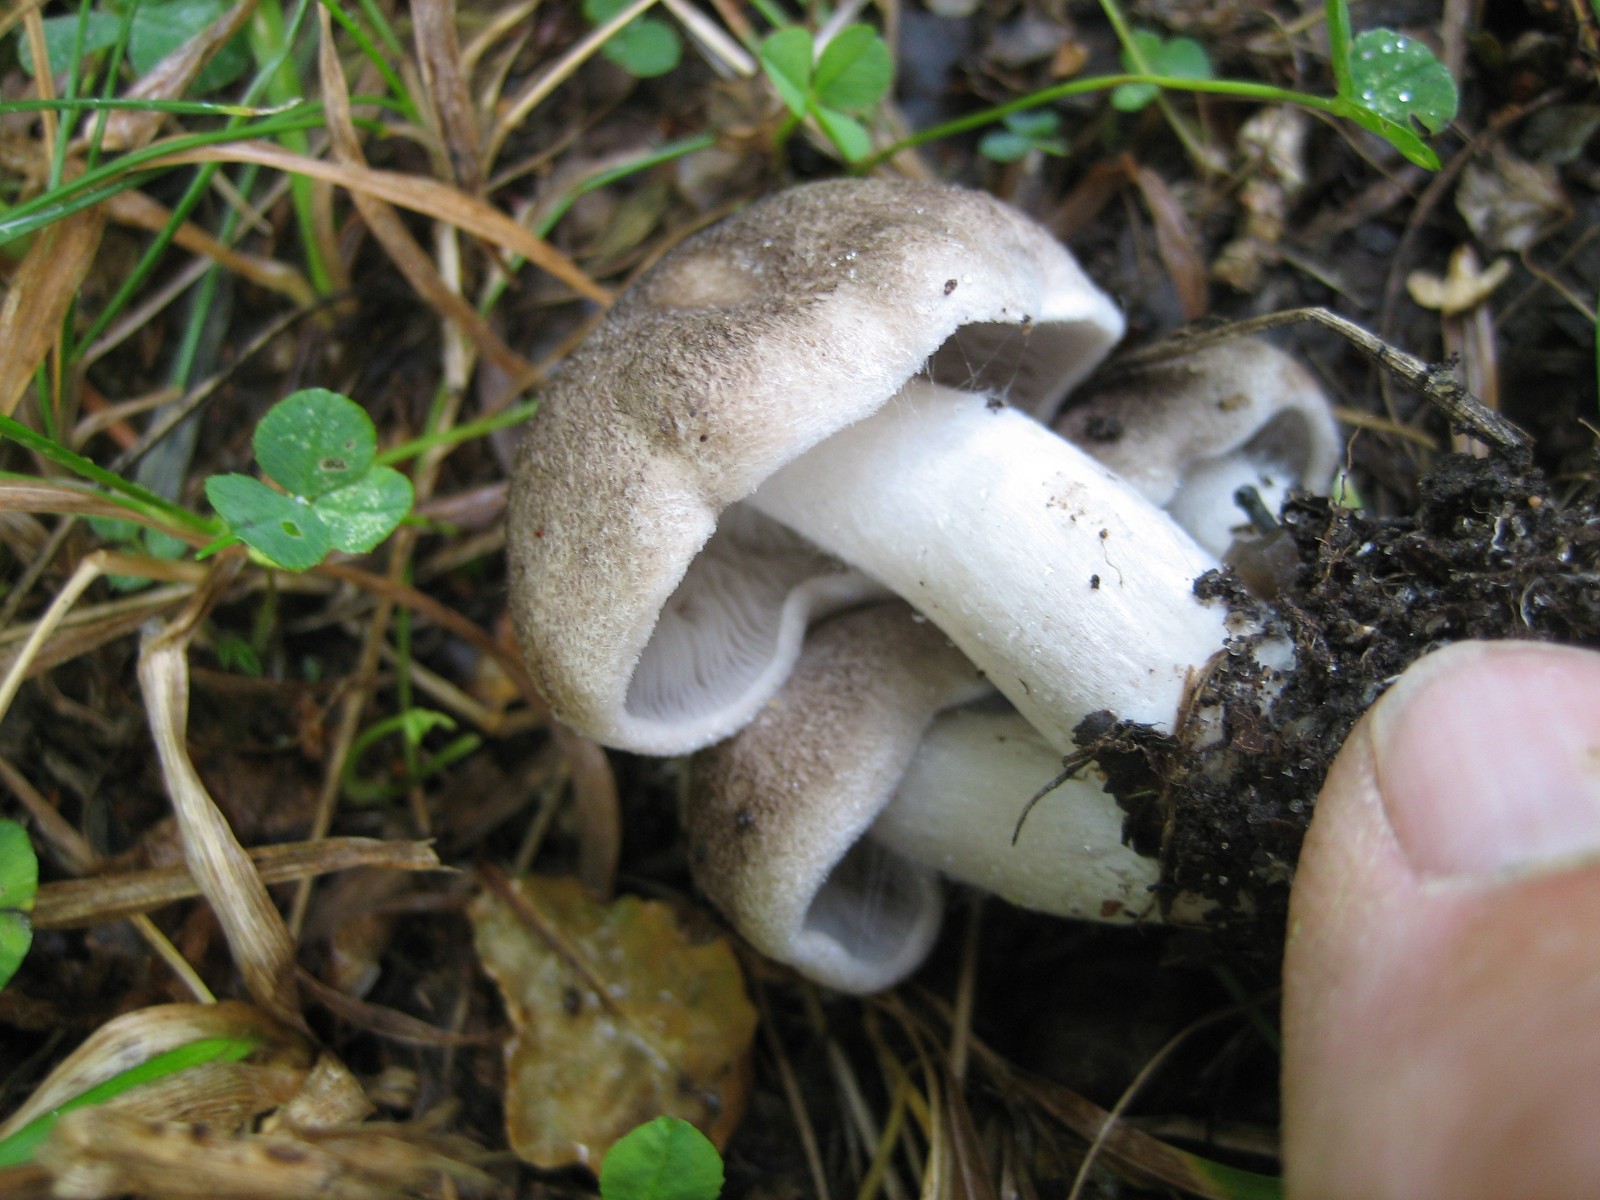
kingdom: Fungi
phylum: Basidiomycota
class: Agaricomycetes
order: Agaricales
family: Tricholomataceae
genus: Tricholoma
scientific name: Tricholoma scalpturatum
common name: gulplettet ridderhat
